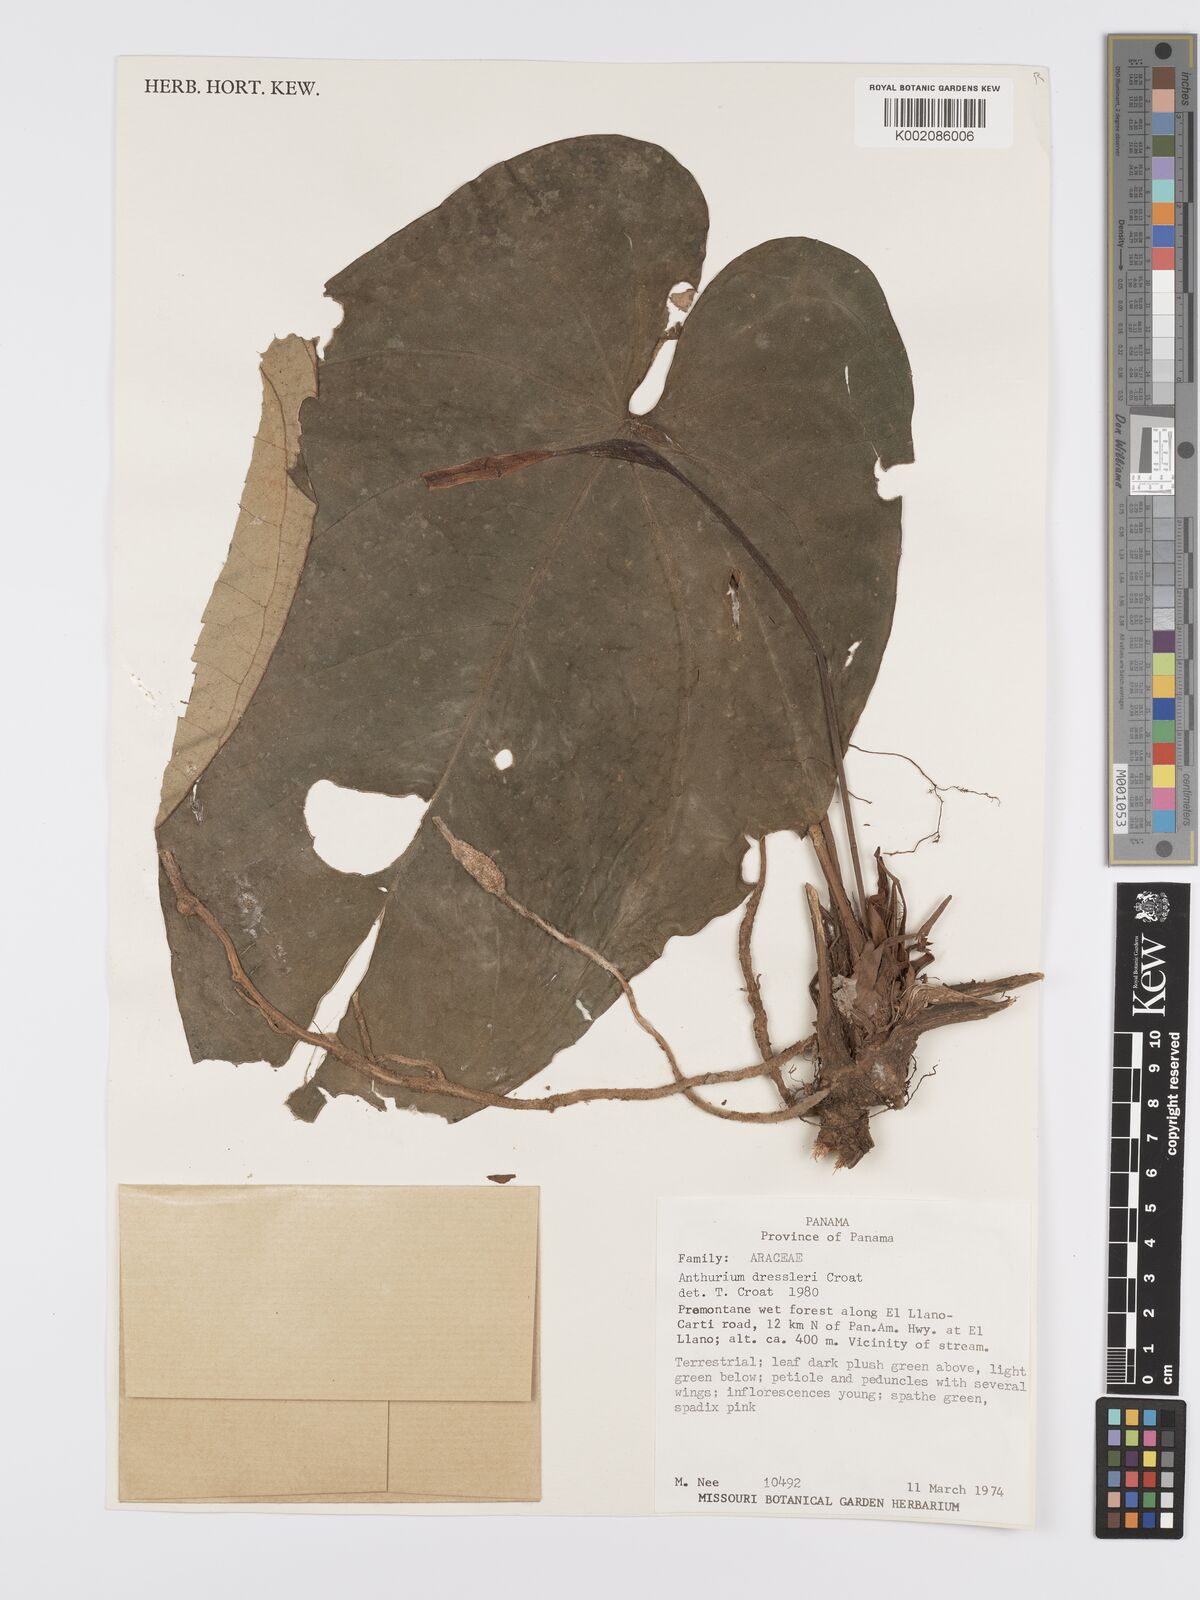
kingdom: Plantae
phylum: Tracheophyta
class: Liliopsida
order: Alismatales
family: Araceae
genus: Anthurium
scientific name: Anthurium dressleri
